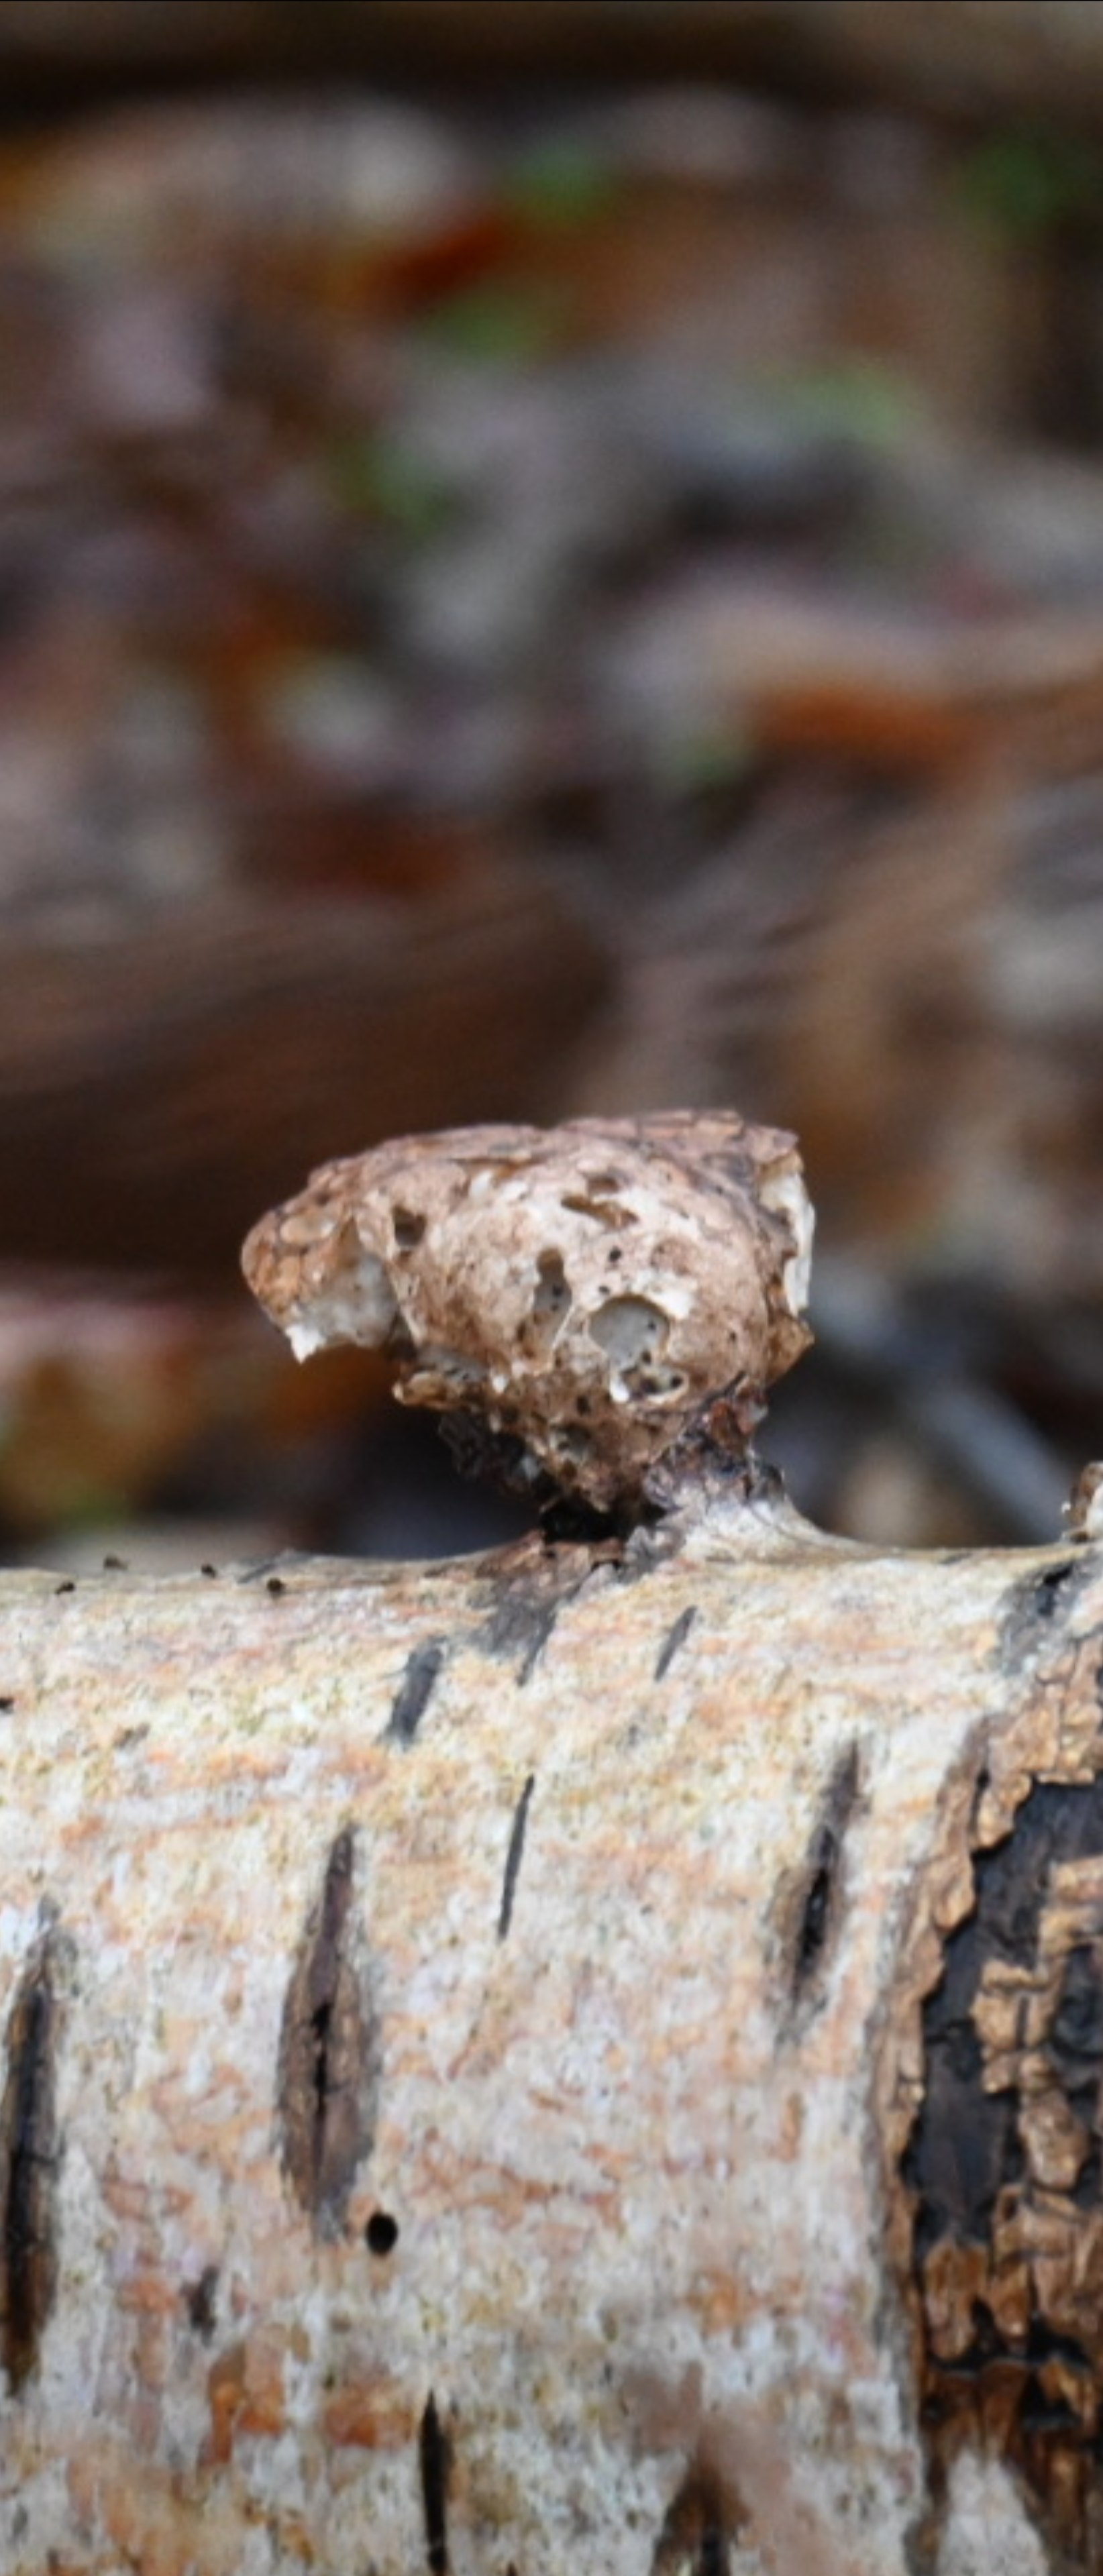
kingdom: Fungi
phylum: Basidiomycota
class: Agaricomycetes
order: Polyporales
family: Fomitopsidaceae
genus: Fomitopsis
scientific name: Fomitopsis betulina
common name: birkeporesvamp
